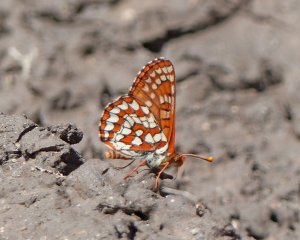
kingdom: Animalia
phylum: Arthropoda
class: Insecta
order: Lepidoptera
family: Nymphalidae
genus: Occidryas
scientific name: Occidryas anicia
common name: Anicia Checkerspot
